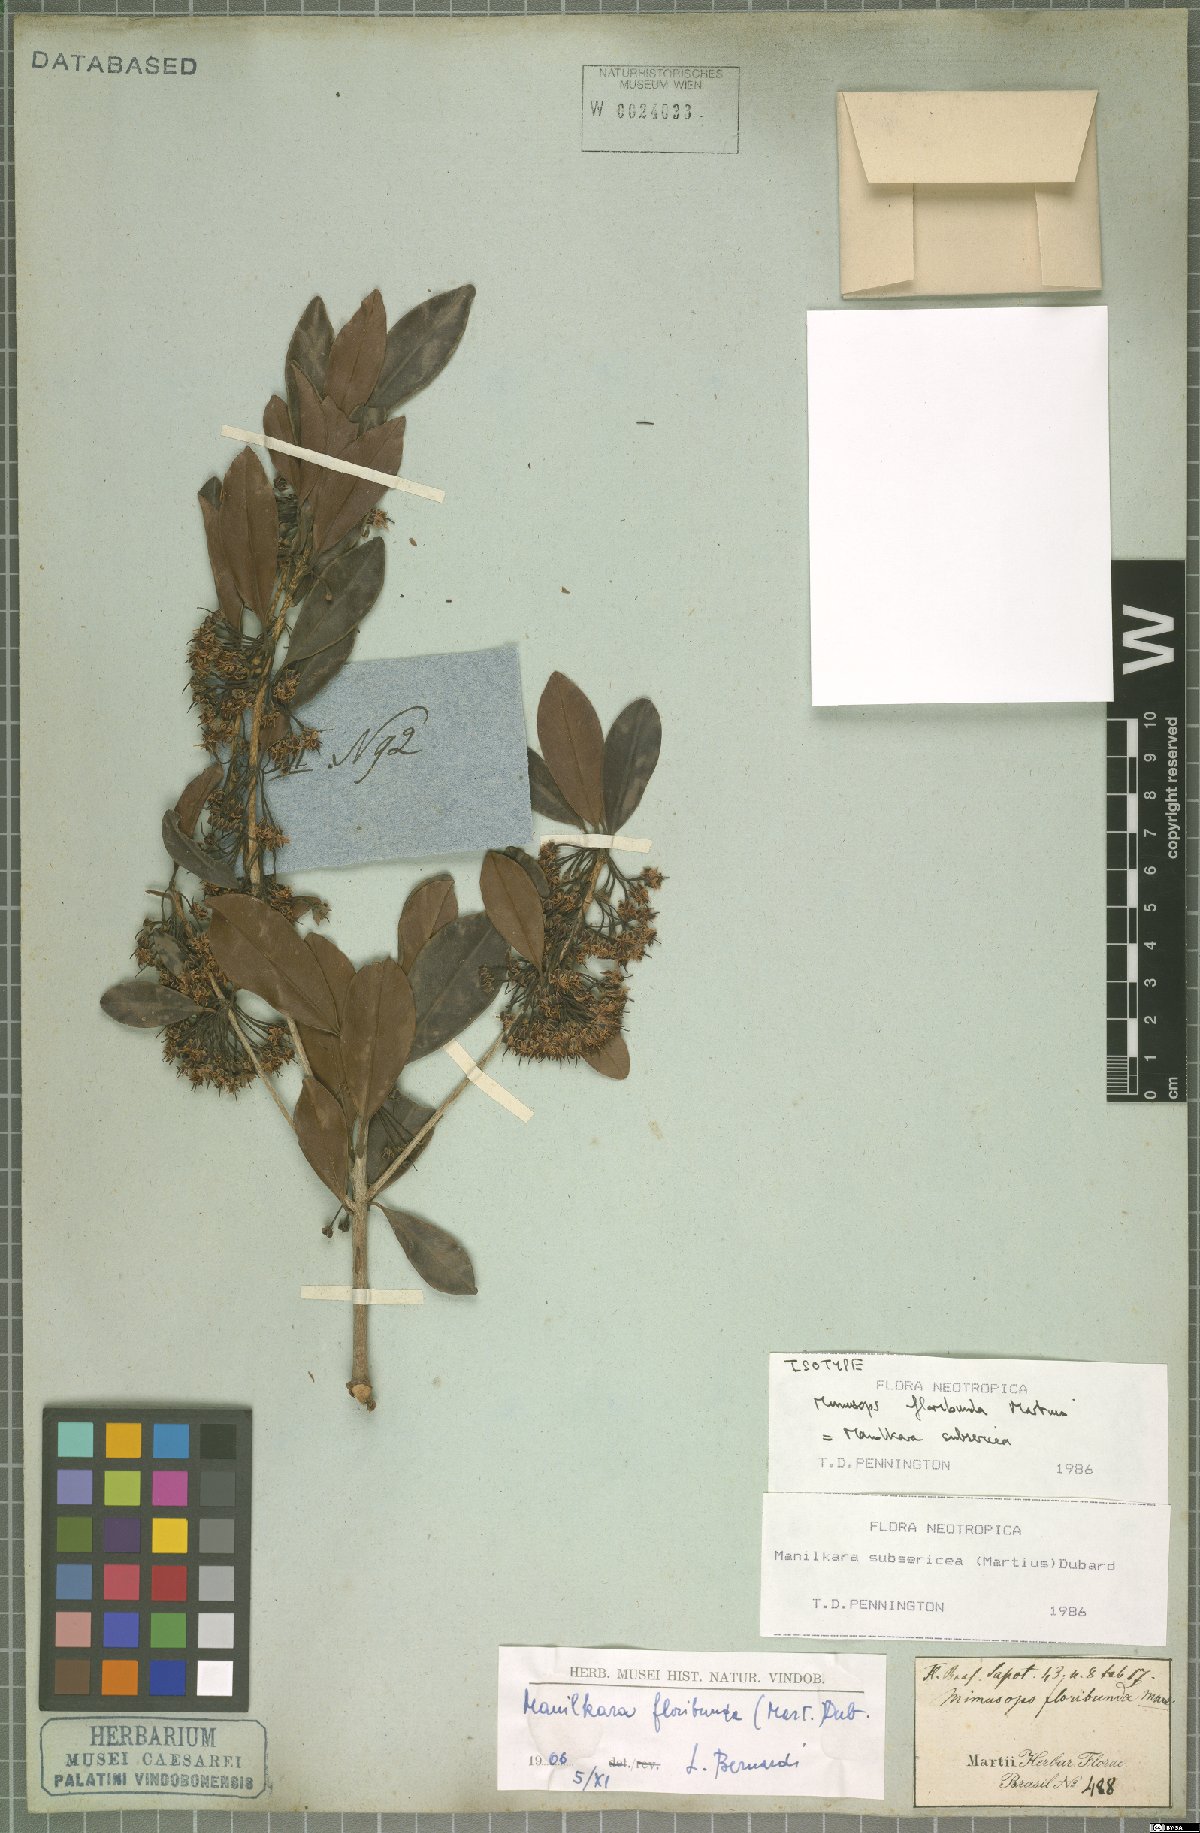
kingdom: Plantae
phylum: Tracheophyta
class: Magnoliopsida
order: Ericales
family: Sapotaceae
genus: Manilkara
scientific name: Manilkara subsericea
